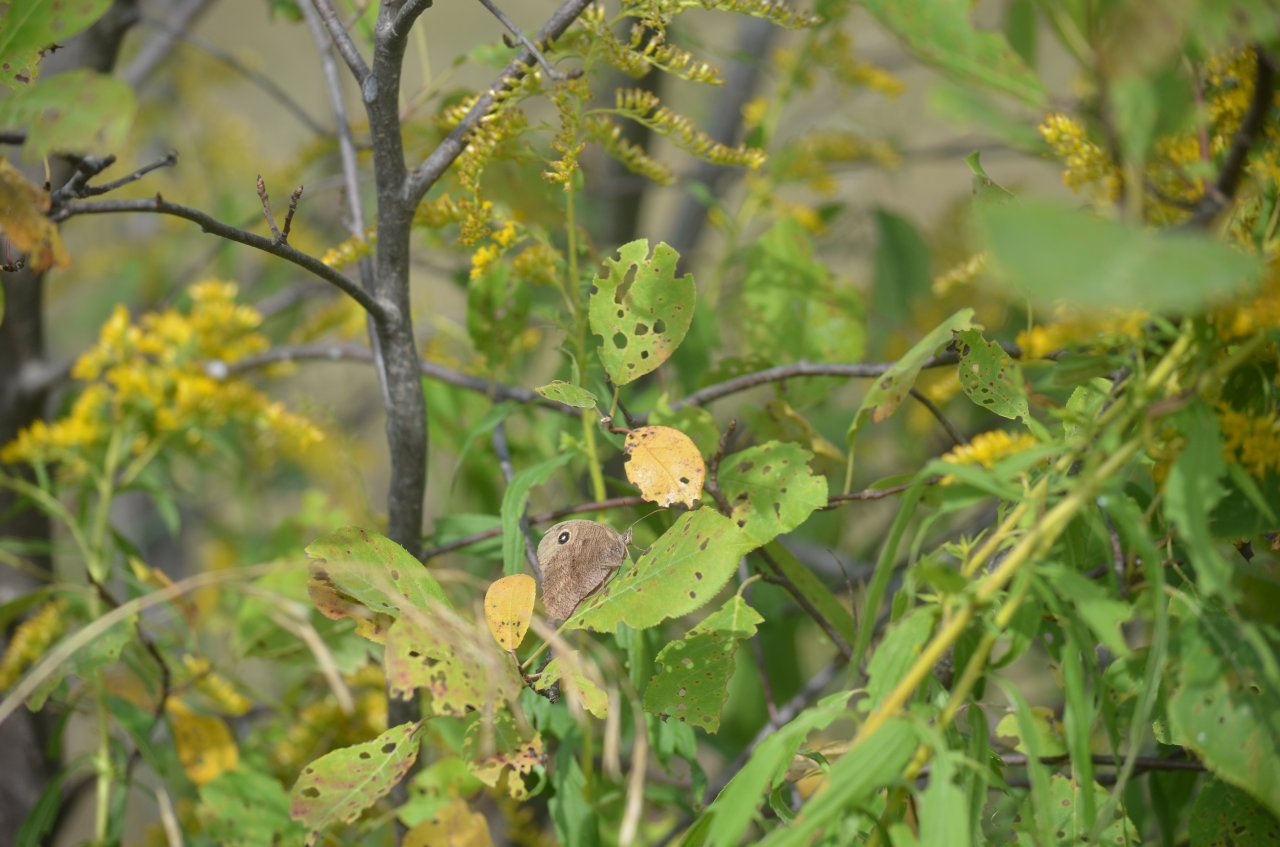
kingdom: Animalia
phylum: Arthropoda
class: Insecta
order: Lepidoptera
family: Nymphalidae
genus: Cercyonis
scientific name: Cercyonis pegala
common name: Common Wood-Nymph
